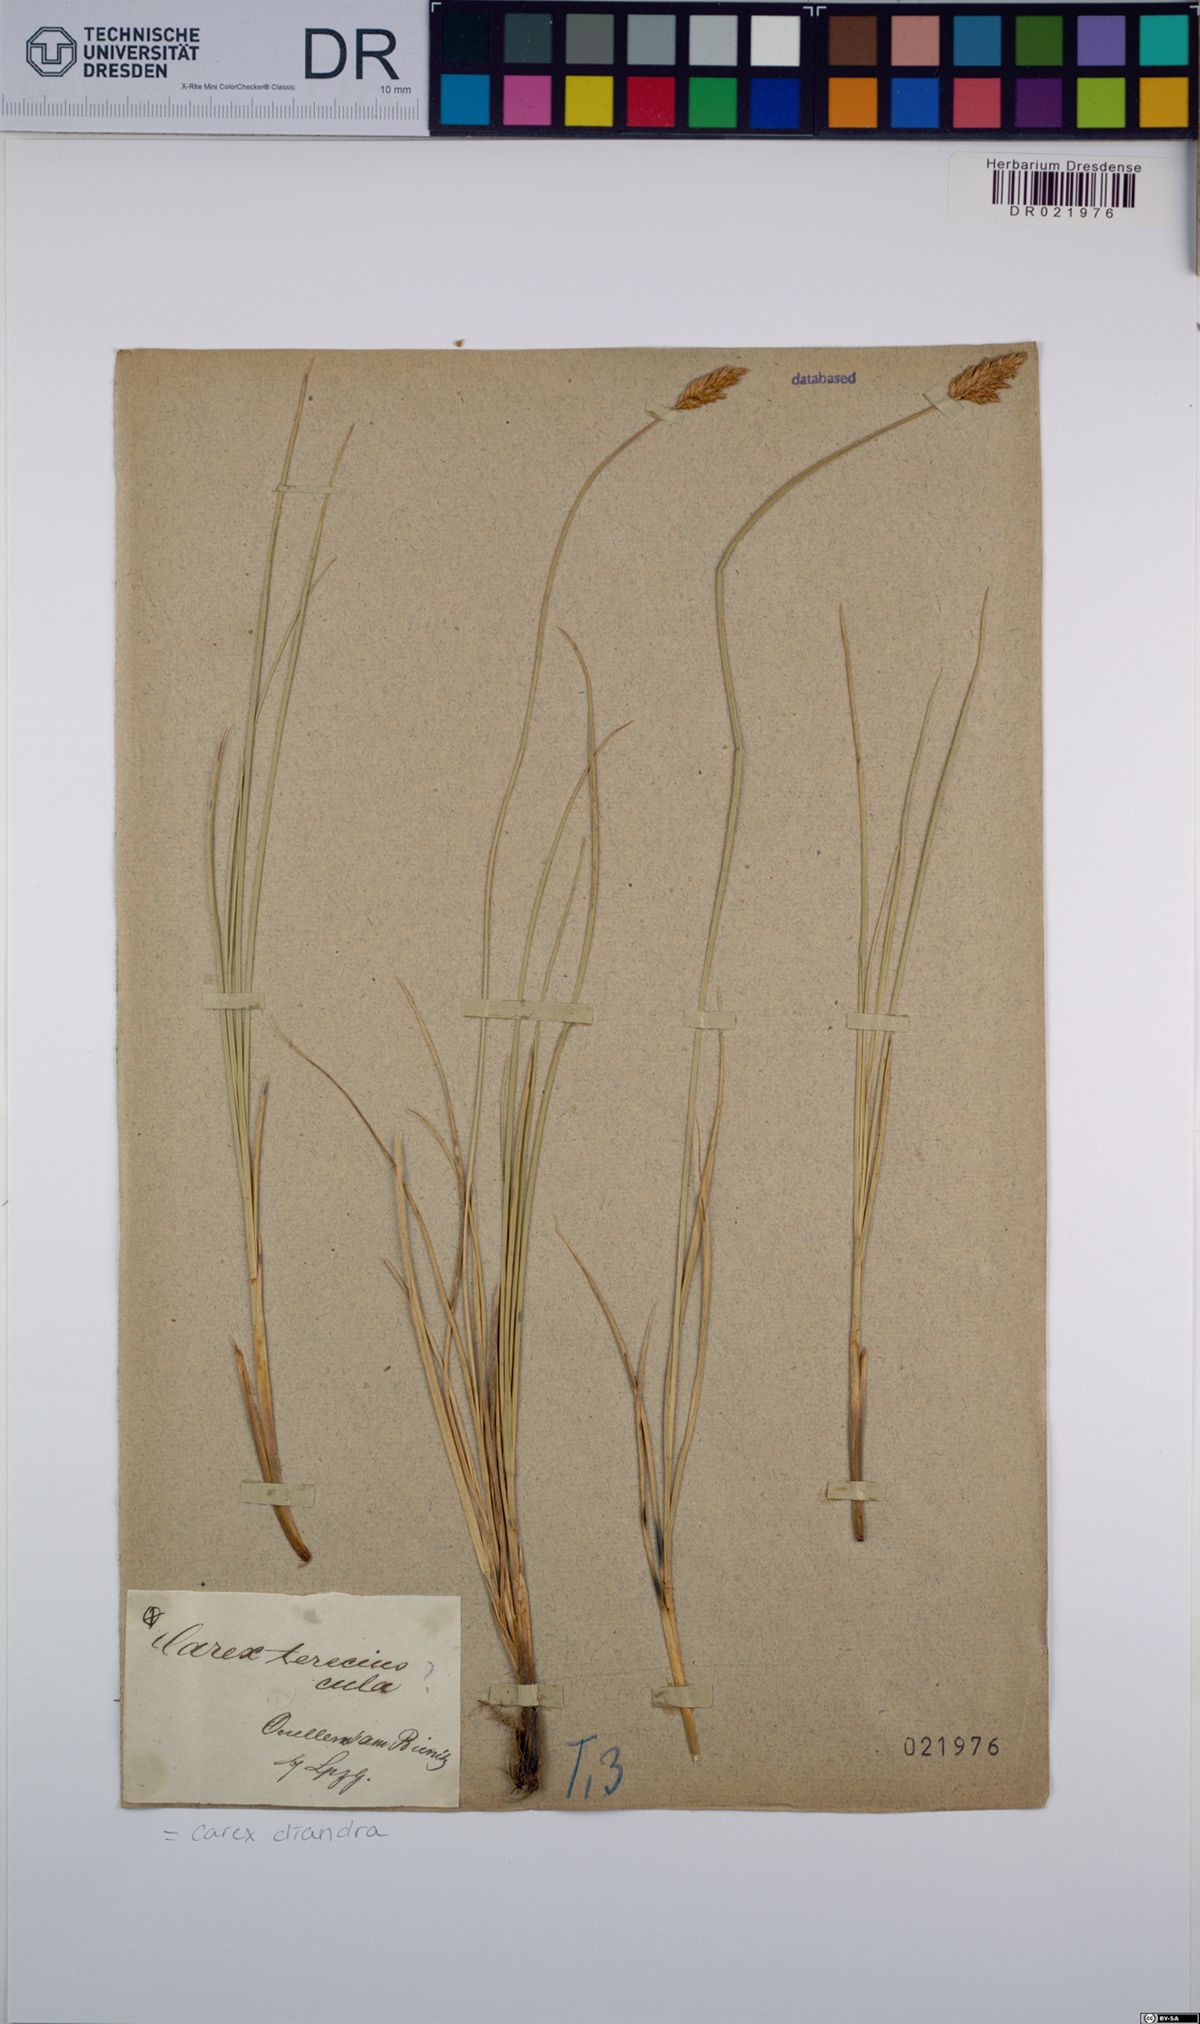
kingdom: Plantae
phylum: Tracheophyta
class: Liliopsida
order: Poales
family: Cyperaceae
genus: Carex
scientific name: Carex diandra
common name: Lesser tussock-sedge
